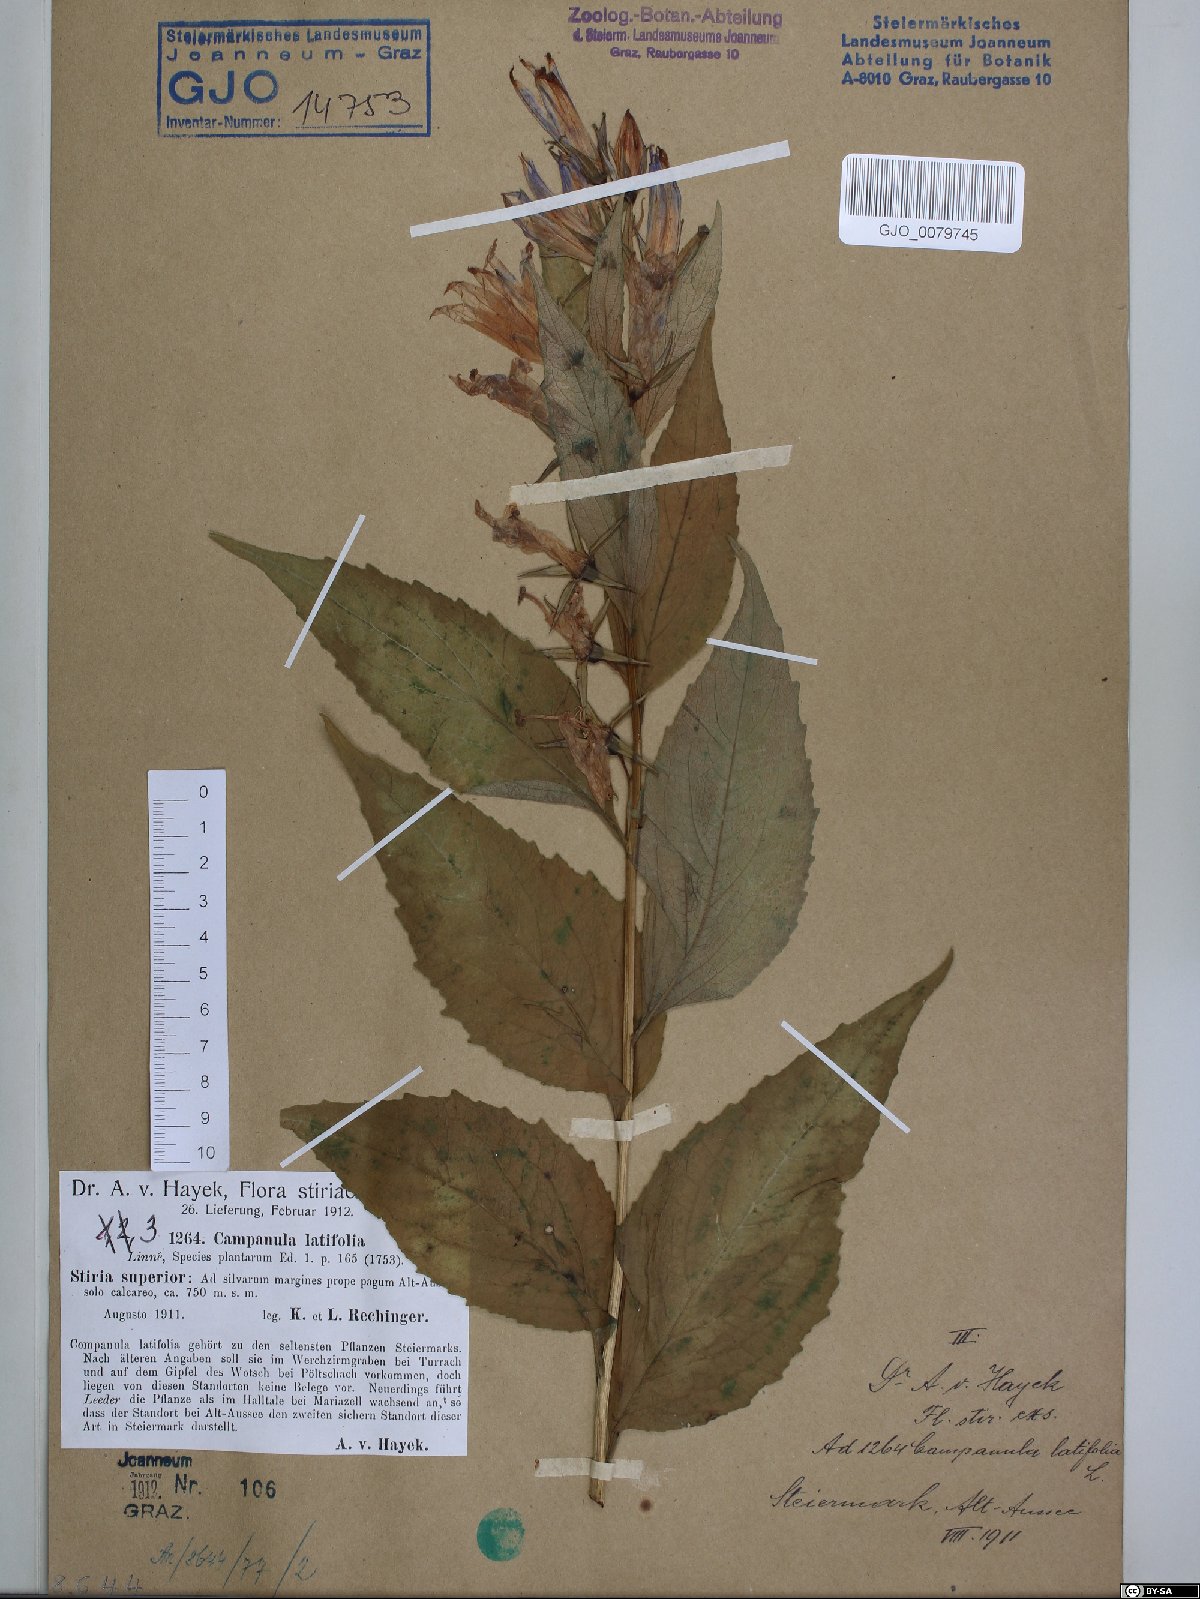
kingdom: Plantae
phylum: Tracheophyta
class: Magnoliopsida
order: Asterales
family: Campanulaceae
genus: Campanula
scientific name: Campanula latifolia
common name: Giant bellflower
